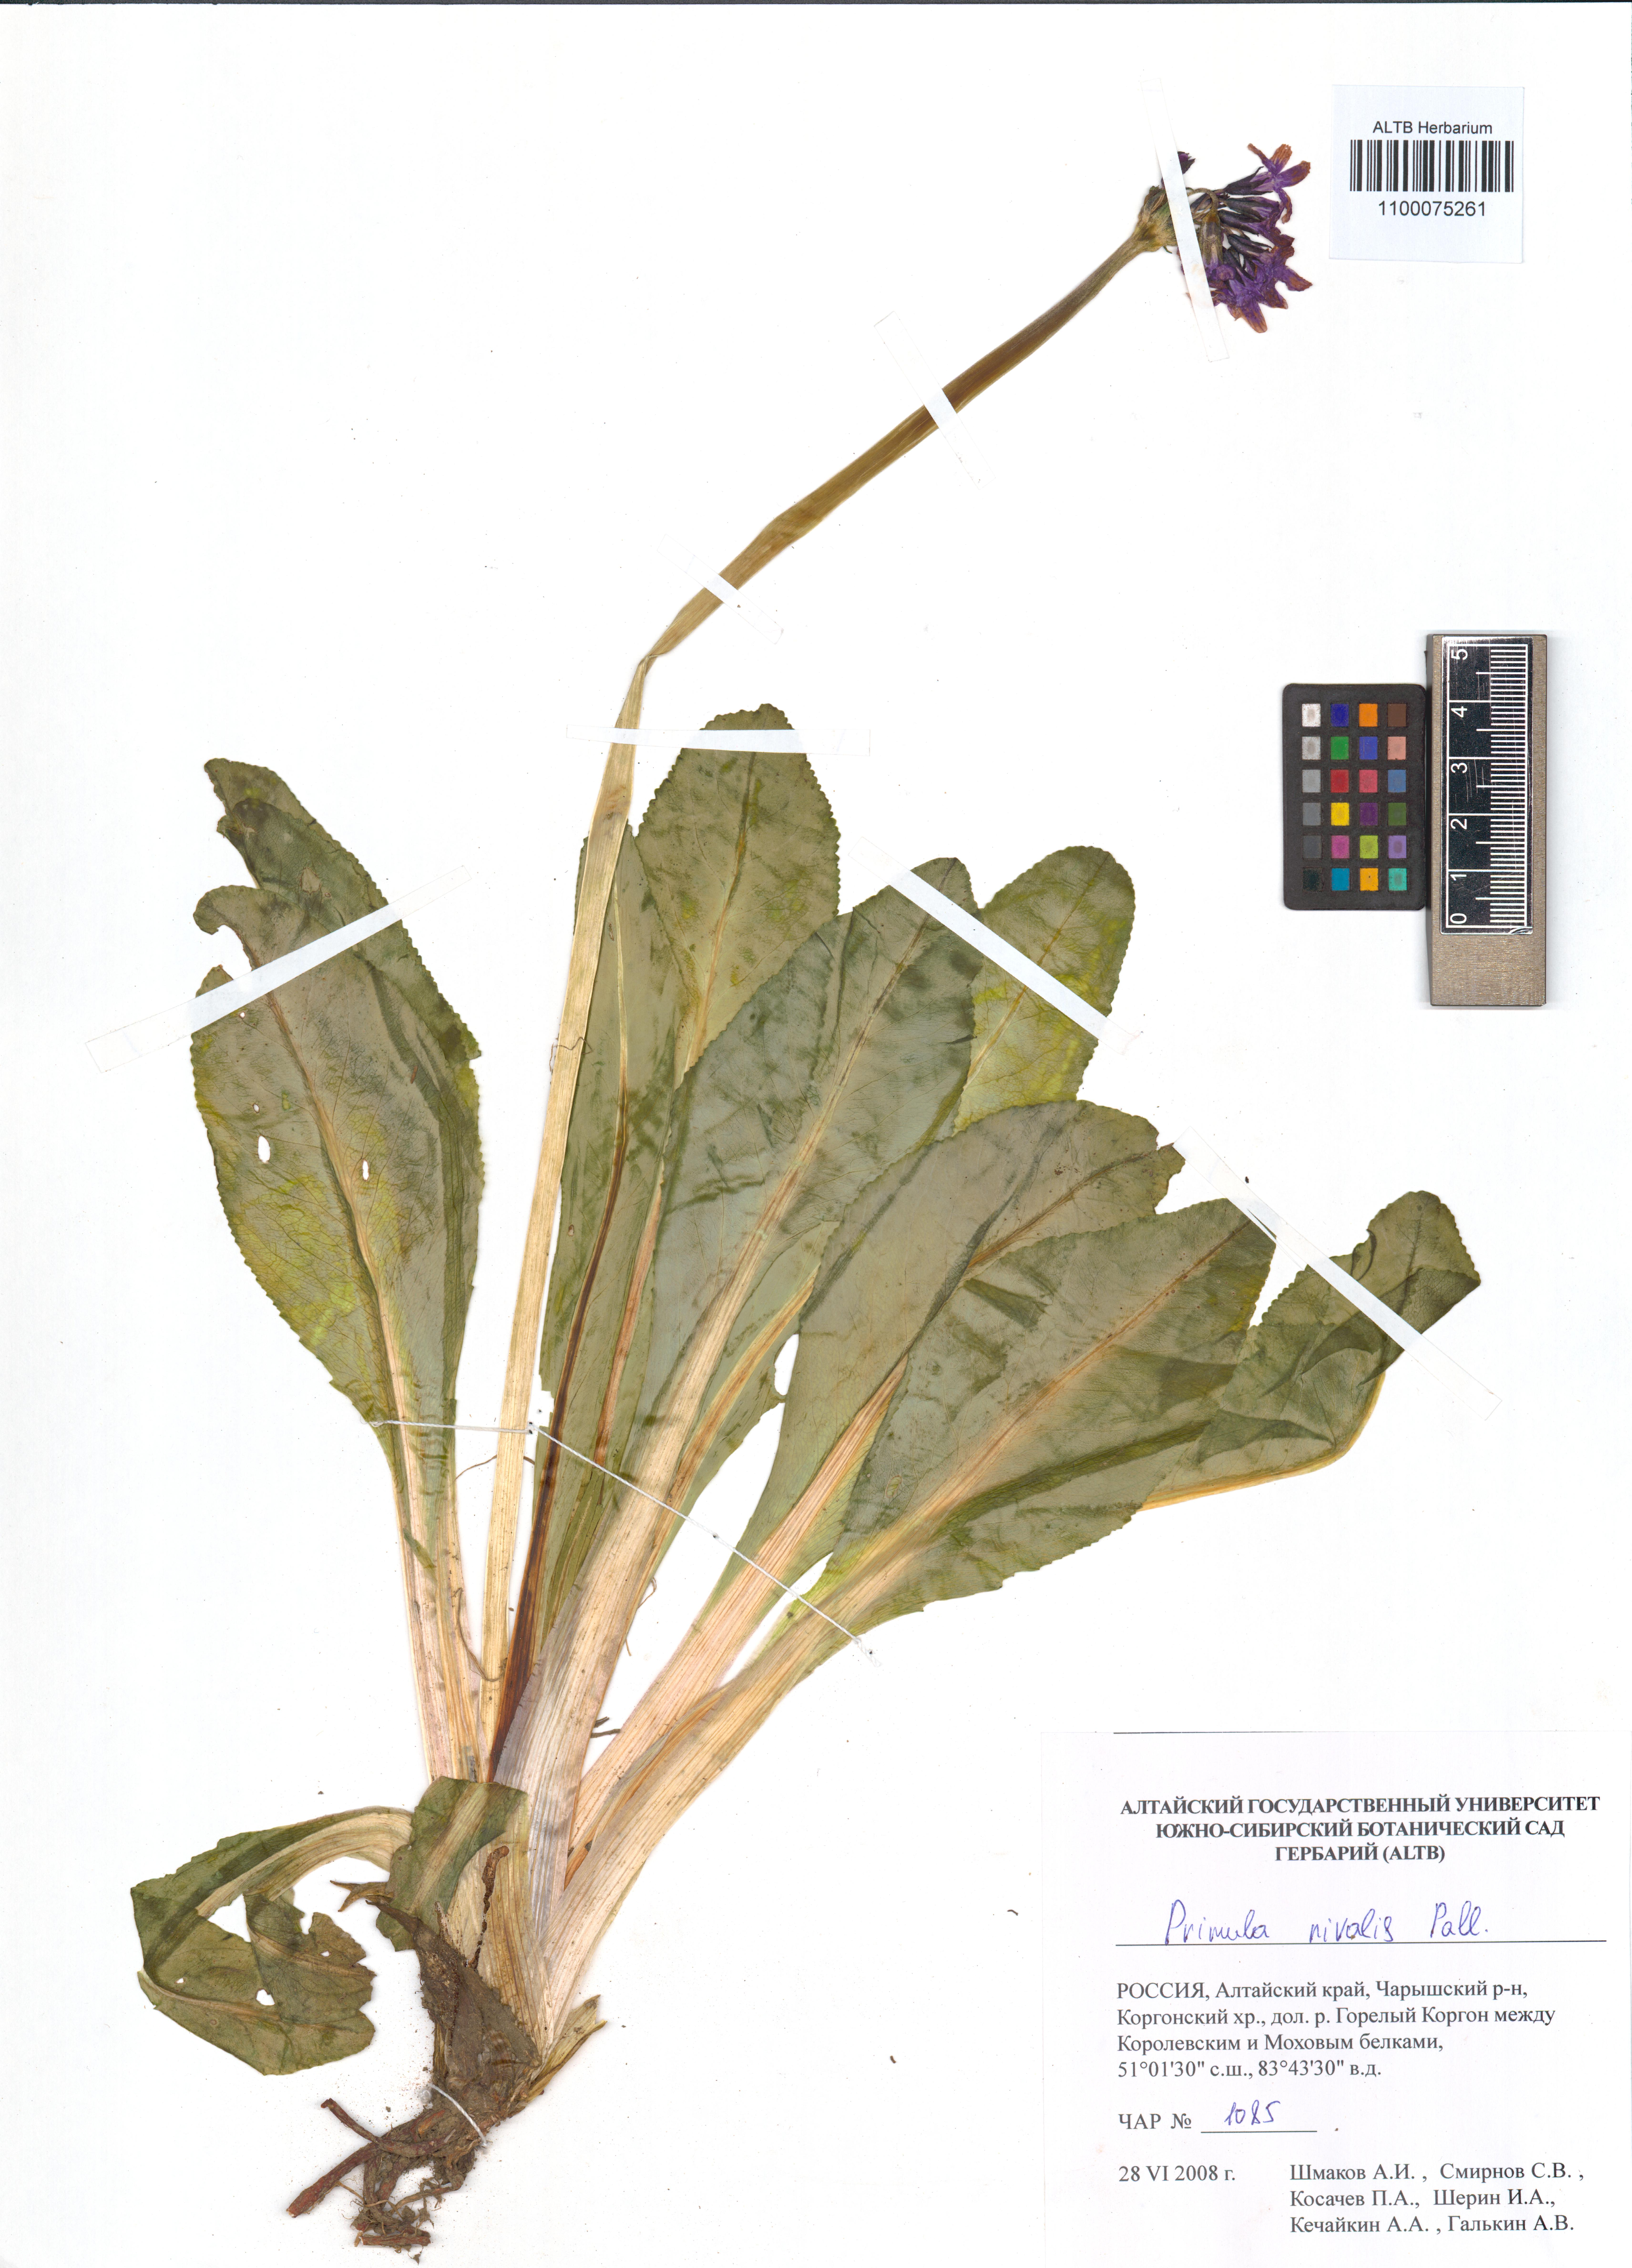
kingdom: Plantae
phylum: Tracheophyta
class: Magnoliopsida
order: Ericales
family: Primulaceae
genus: Primula
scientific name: Primula nivalis
